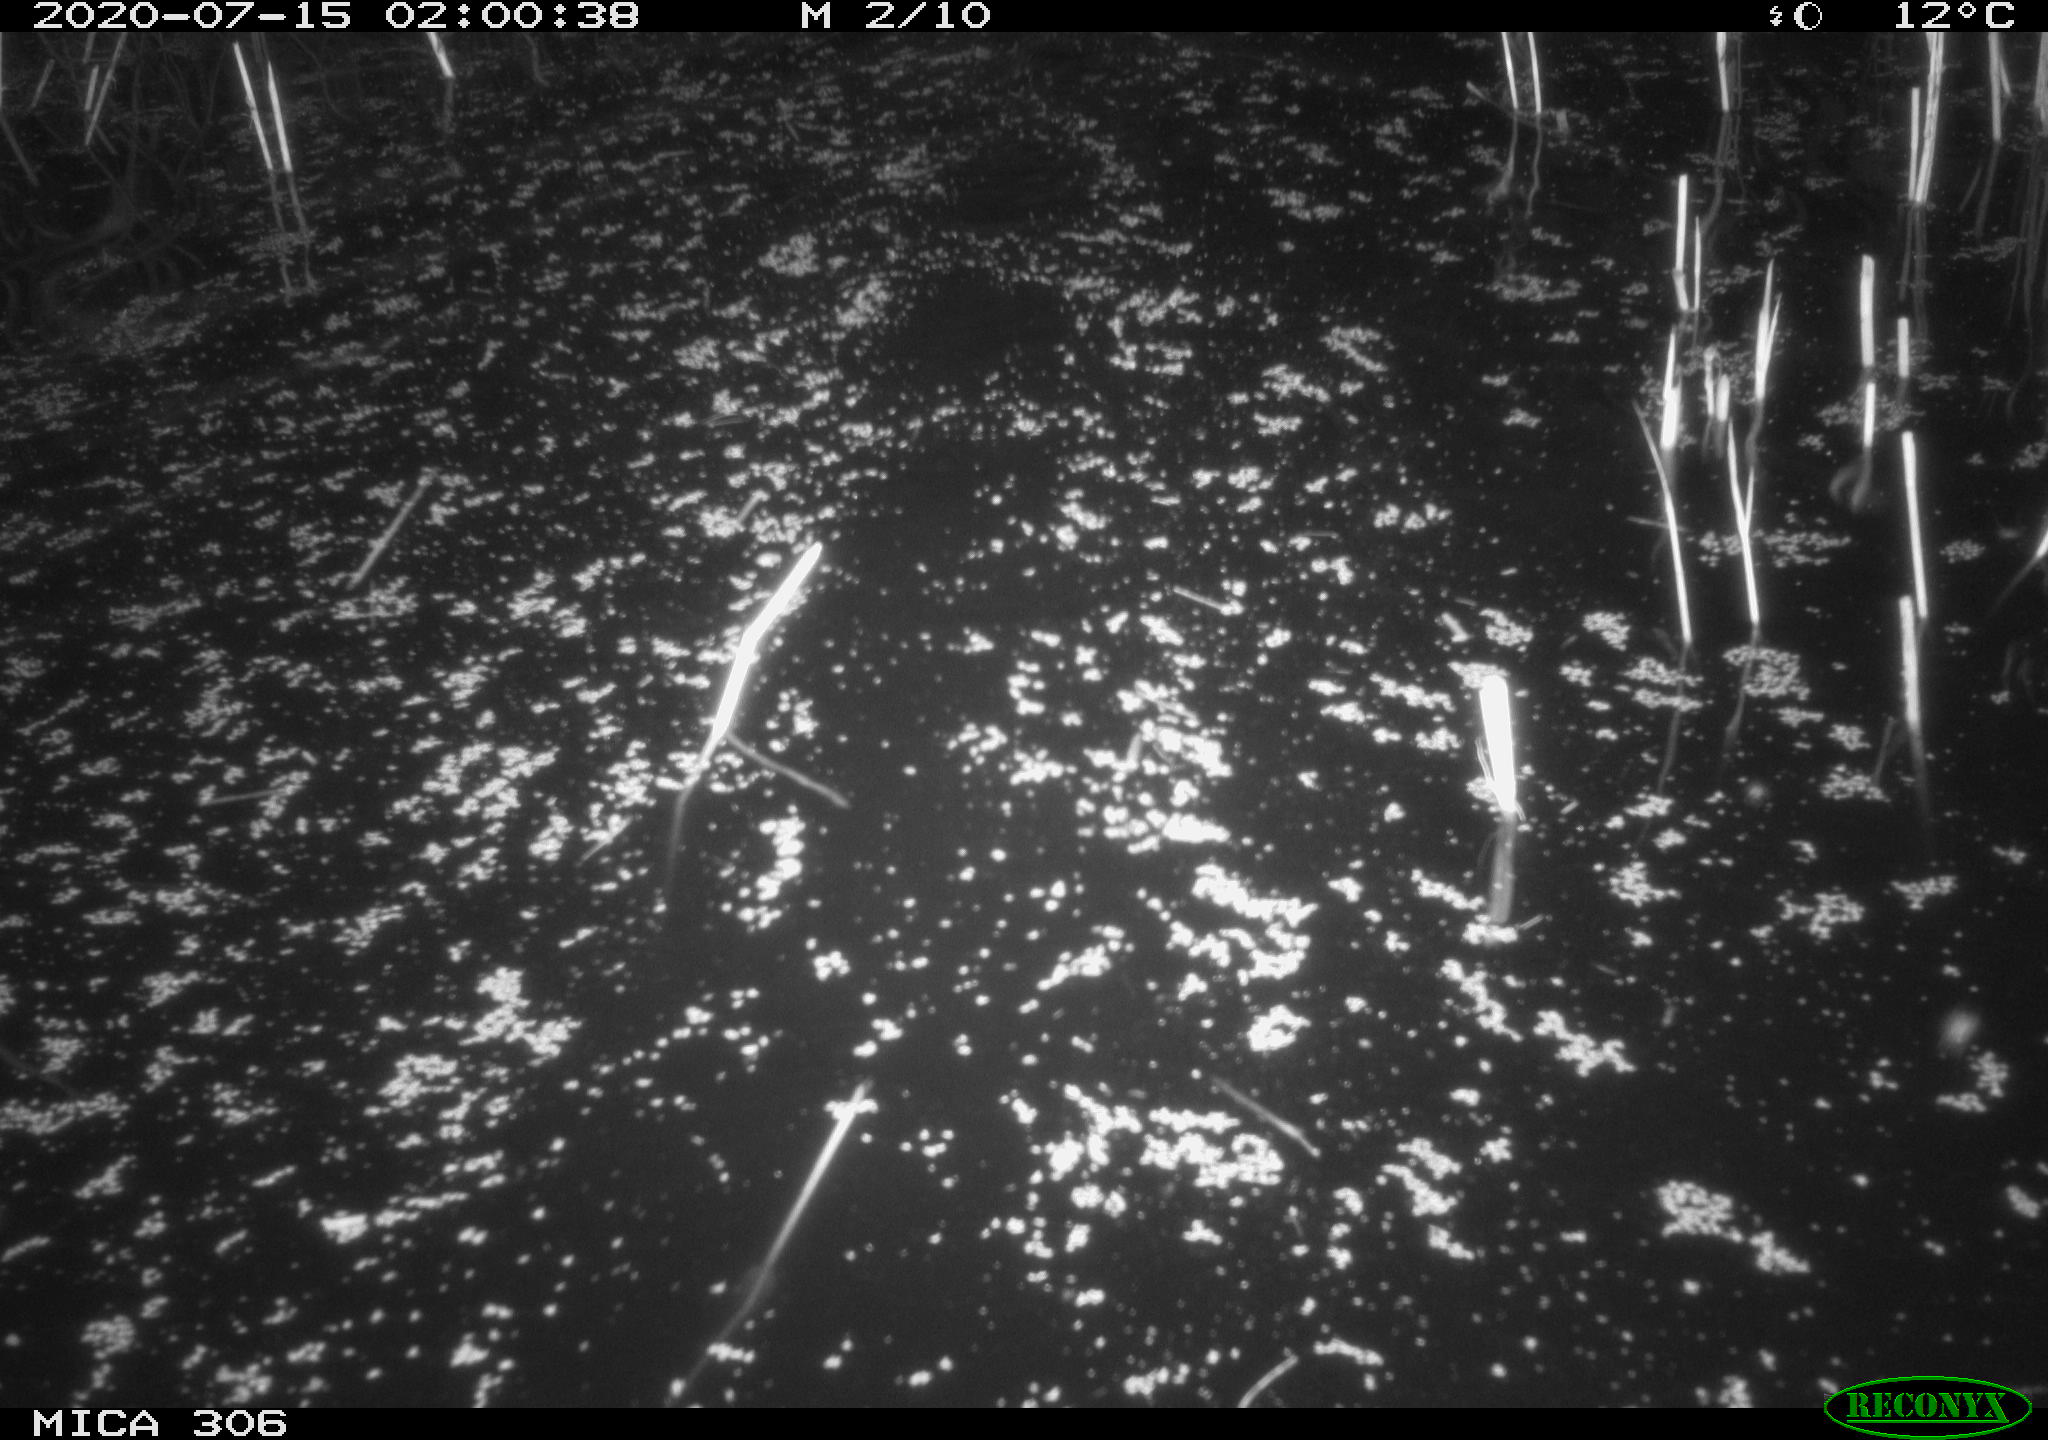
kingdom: Animalia
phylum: Chordata
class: Mammalia
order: Rodentia
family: Cricetidae
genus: Ondatra
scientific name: Ondatra zibethicus
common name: Muskrat
